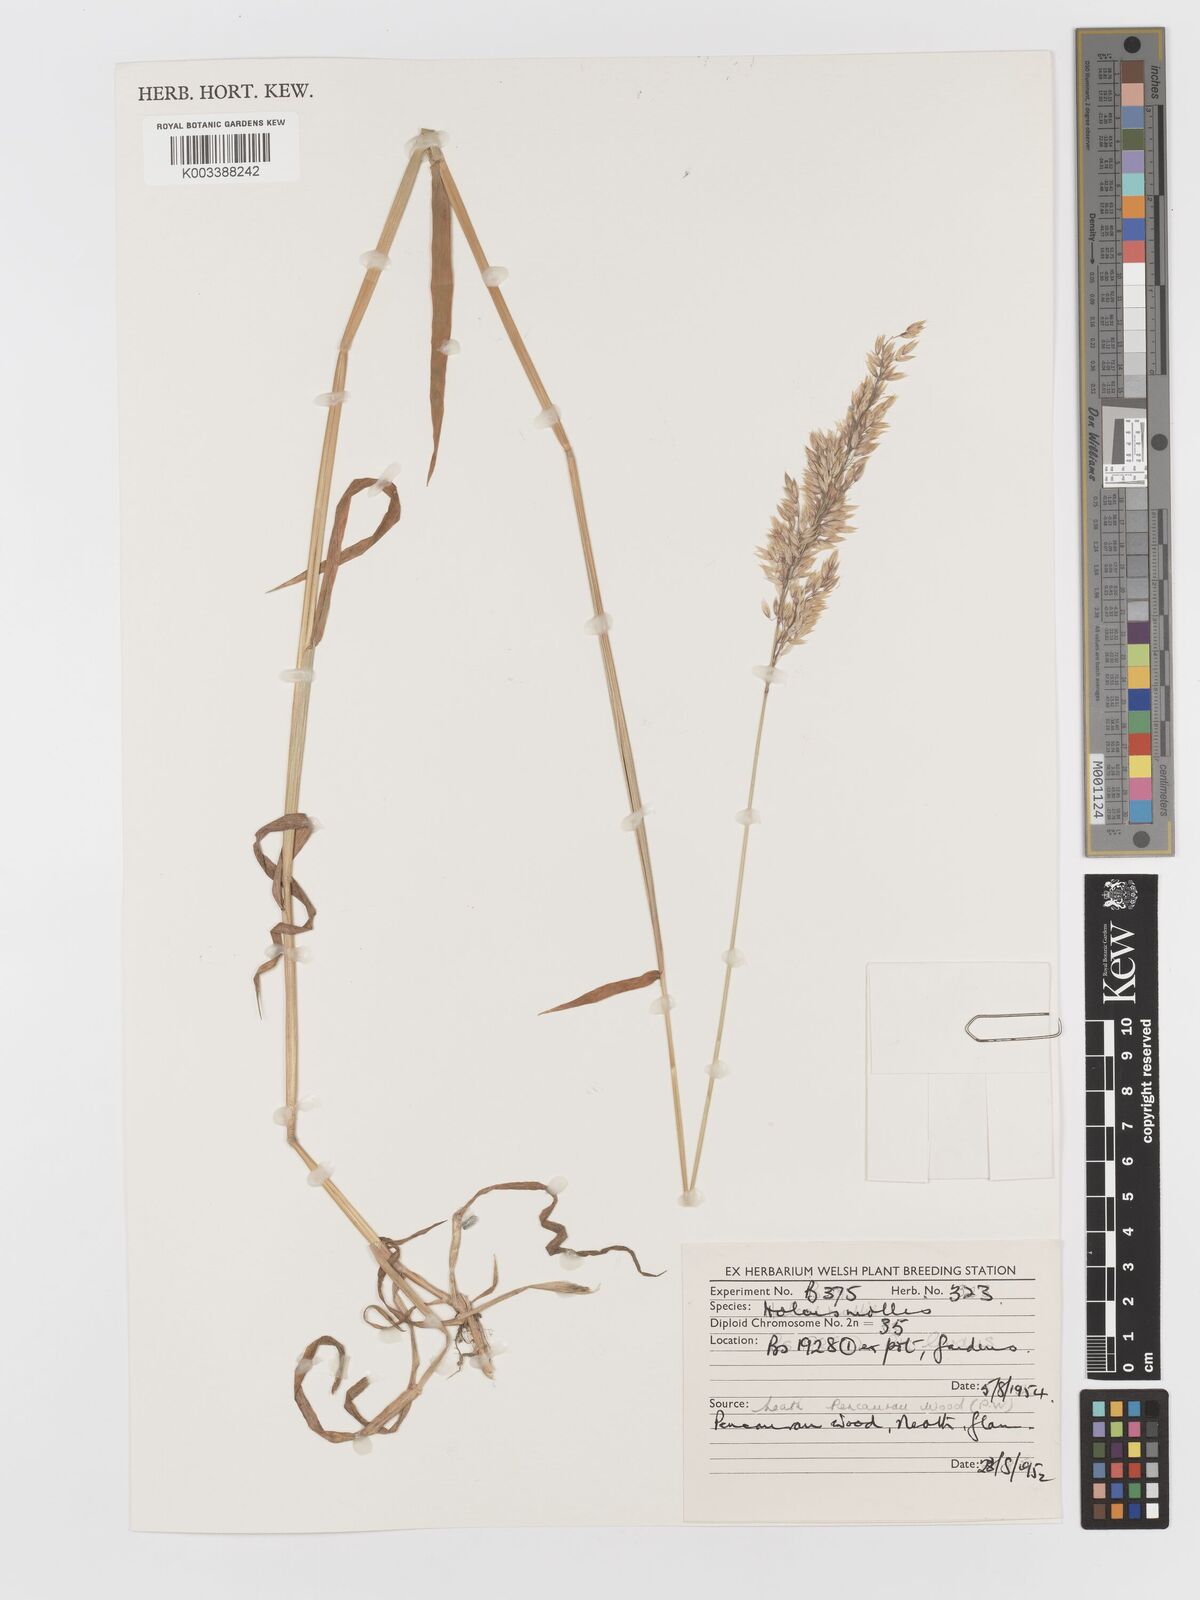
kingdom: Plantae
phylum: Tracheophyta
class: Liliopsida
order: Poales
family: Poaceae
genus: Holcus
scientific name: Holcus mollis
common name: Creeping velvetgrass
